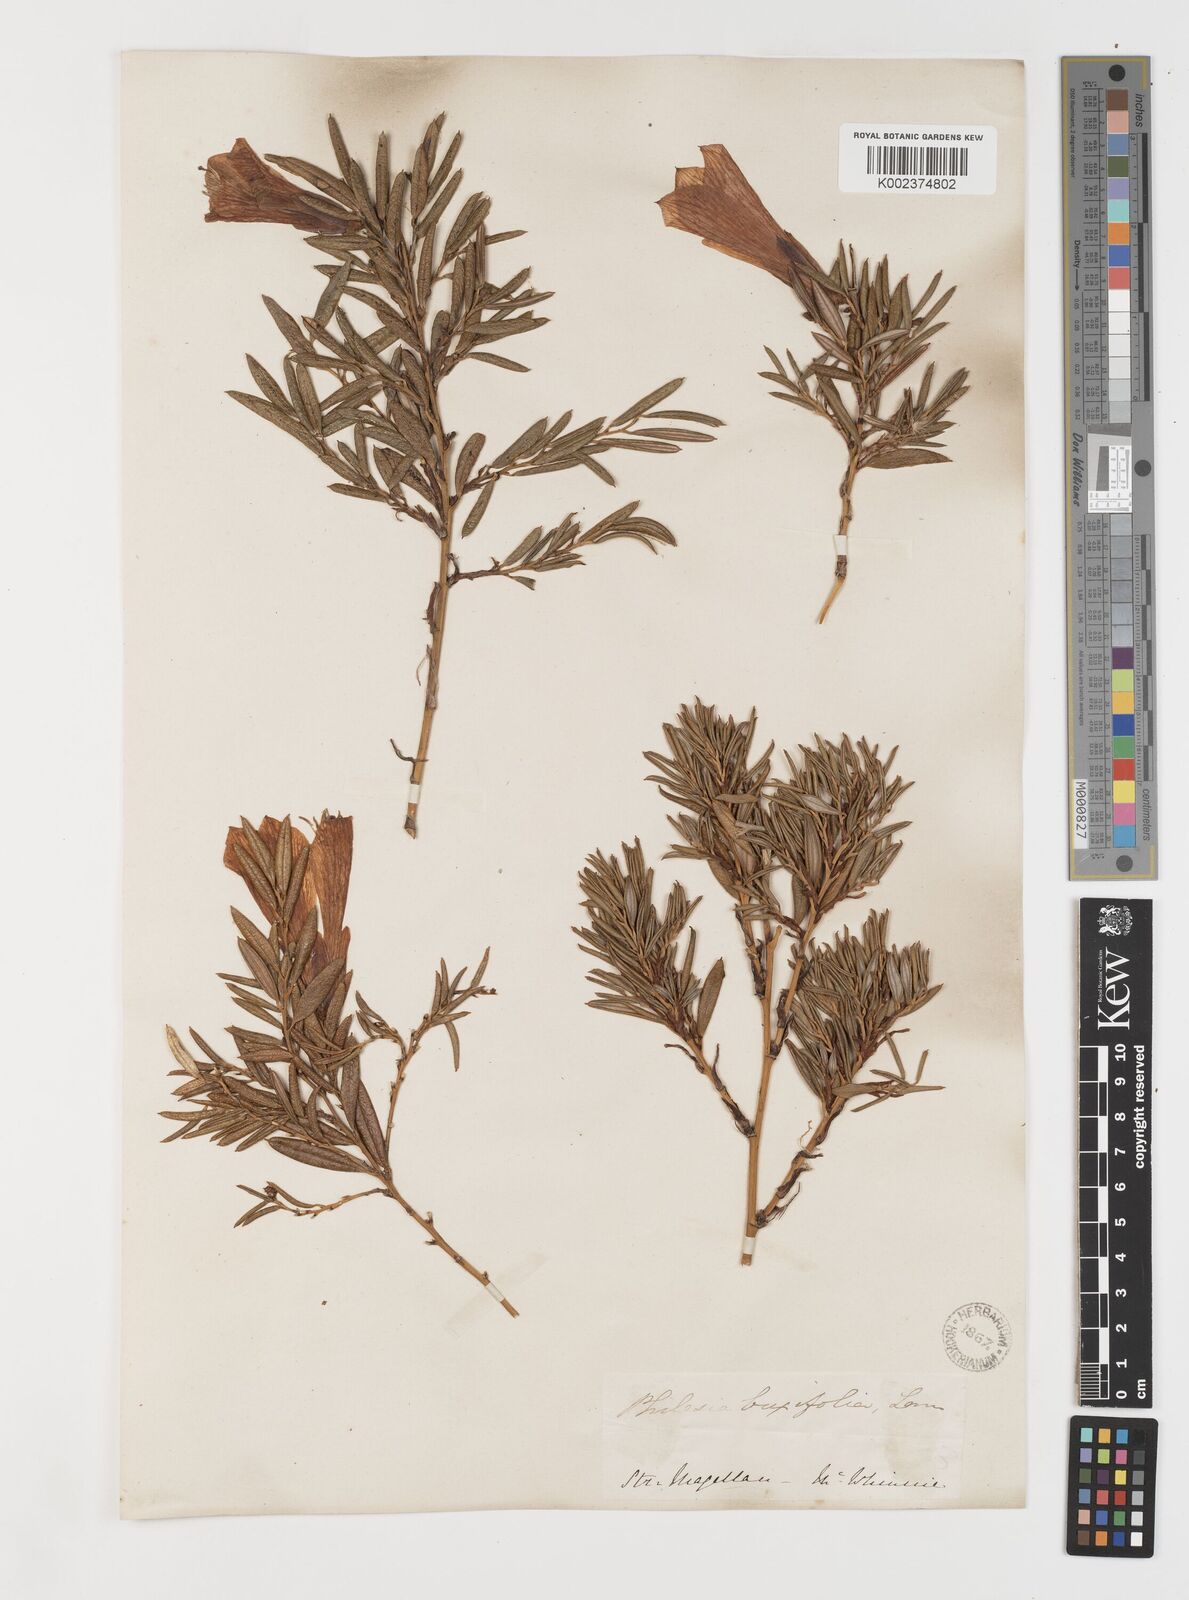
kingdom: Plantae
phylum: Tracheophyta
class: Liliopsida
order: Liliales
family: Philesiaceae
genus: Philesia
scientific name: Philesia magellanica
